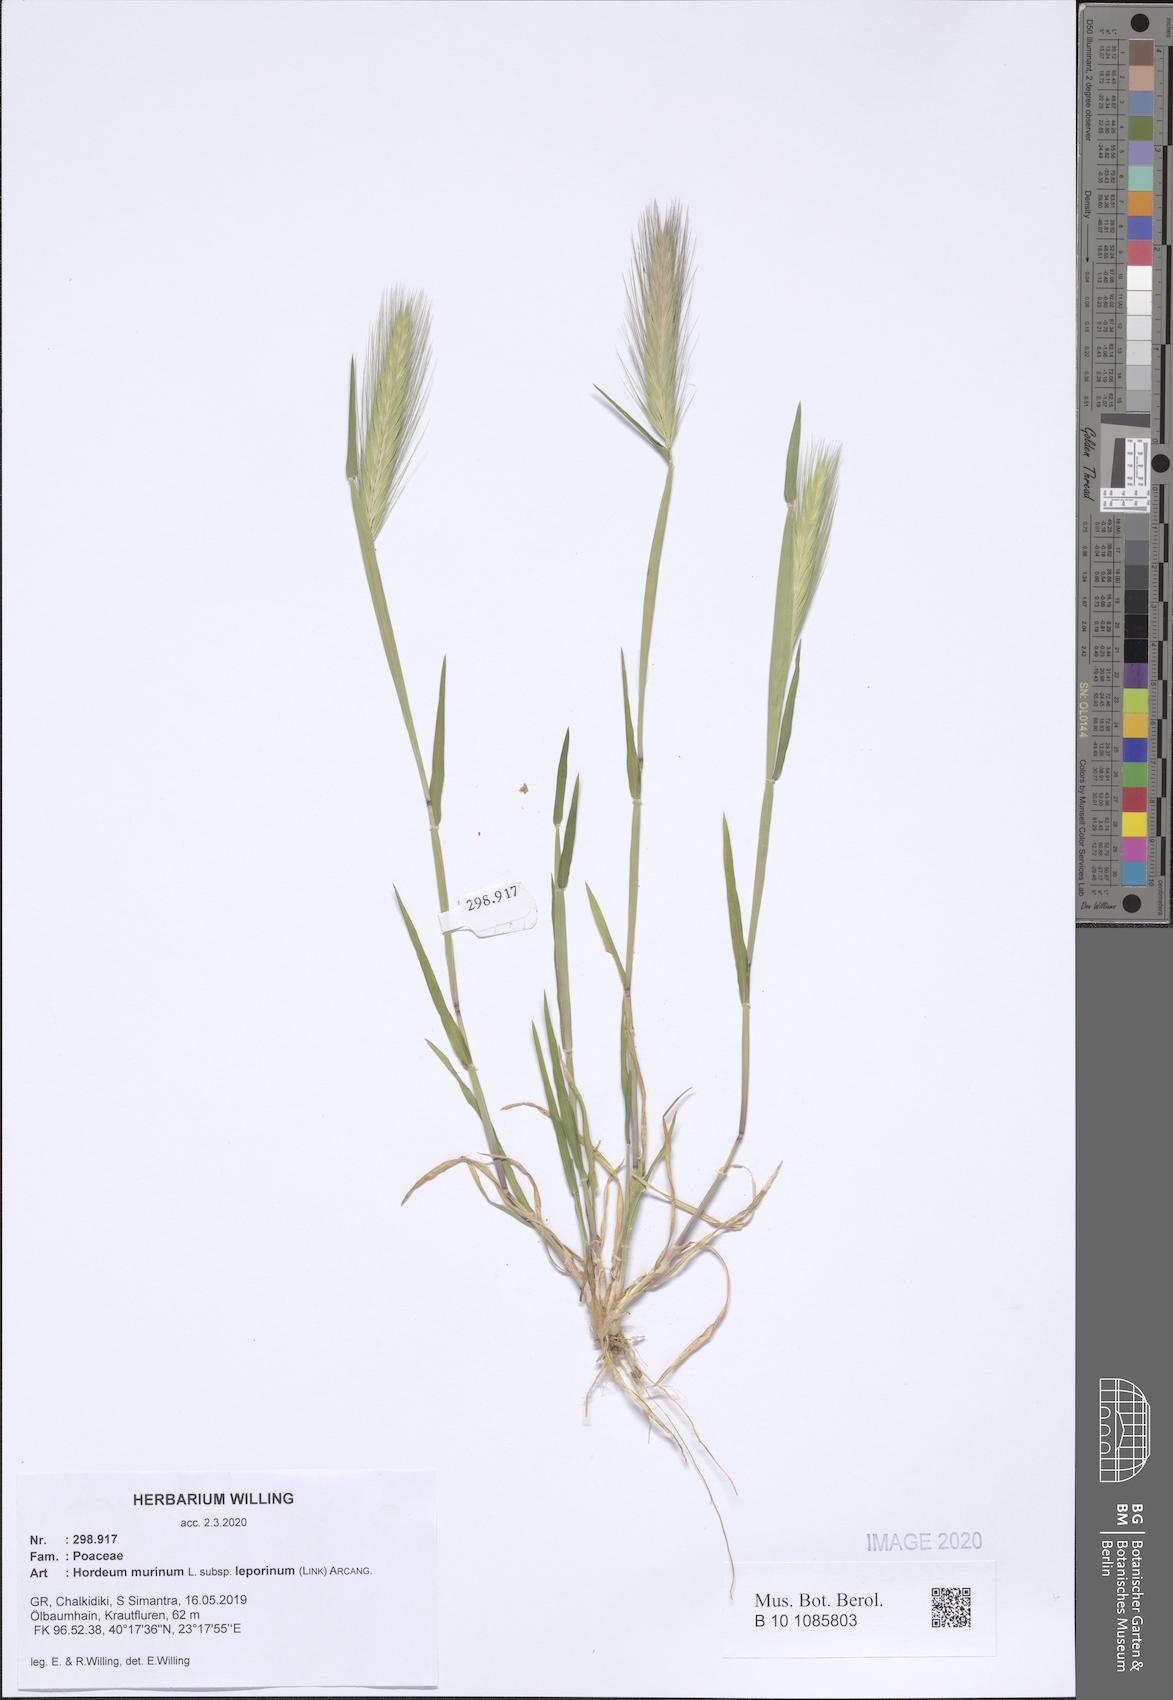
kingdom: Plantae
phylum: Tracheophyta
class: Liliopsida
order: Poales
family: Poaceae
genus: Hordeum
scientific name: Hordeum murinum
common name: Wall barley
